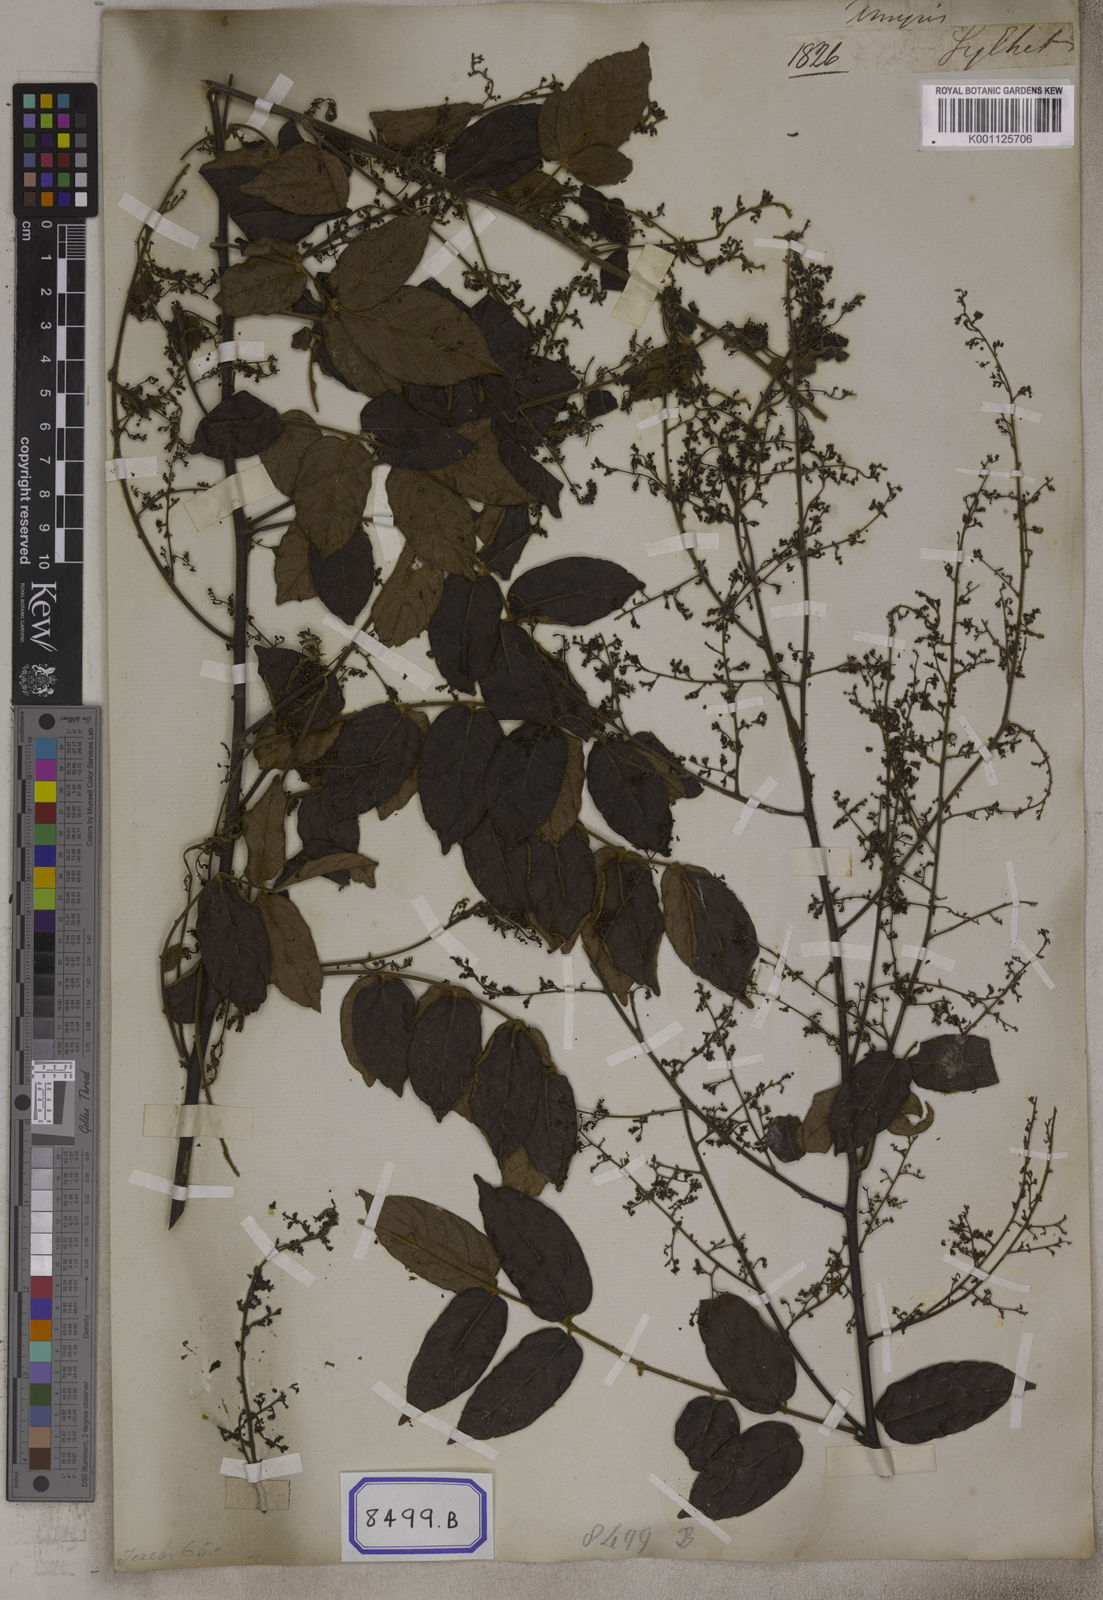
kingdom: Plantae
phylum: Tracheophyta
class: Magnoliopsida
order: Sapindales
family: Anacardiaceae
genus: Pegia
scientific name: Pegia nitida
